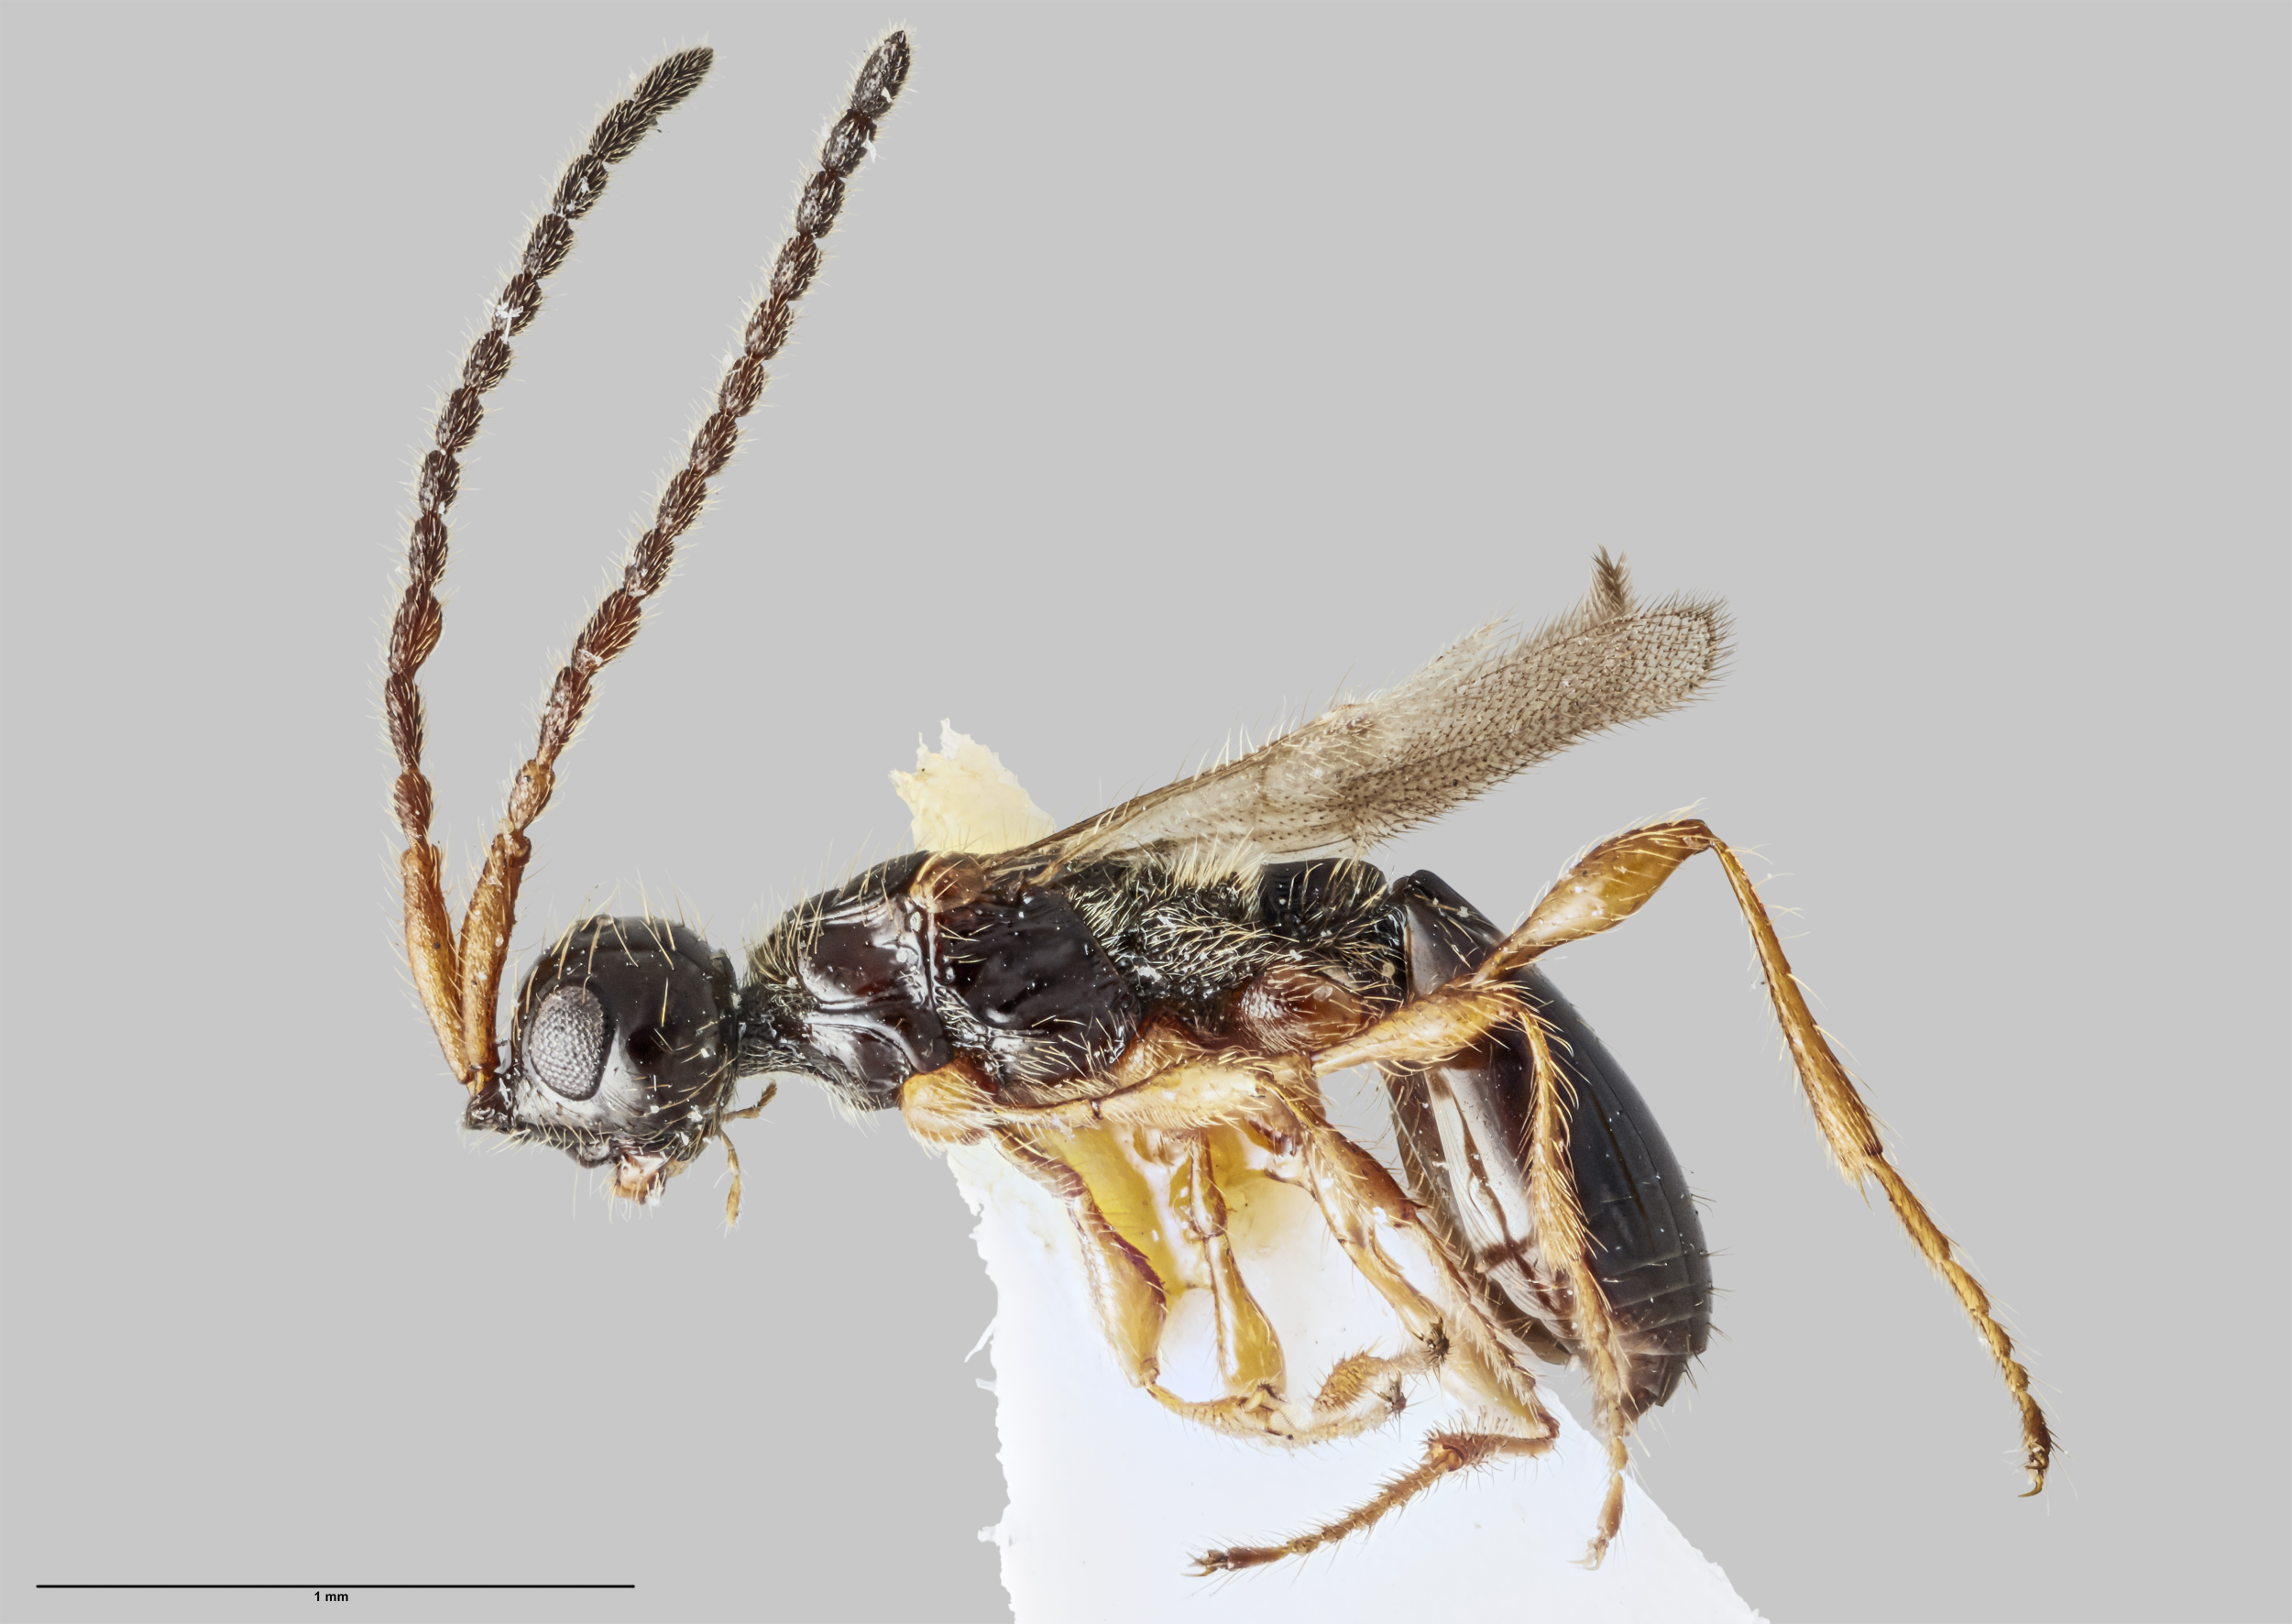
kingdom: Animalia
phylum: Arthropoda
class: Insecta
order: Hymenoptera
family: Diapriidae
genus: Idiotypa
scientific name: Idiotypa
